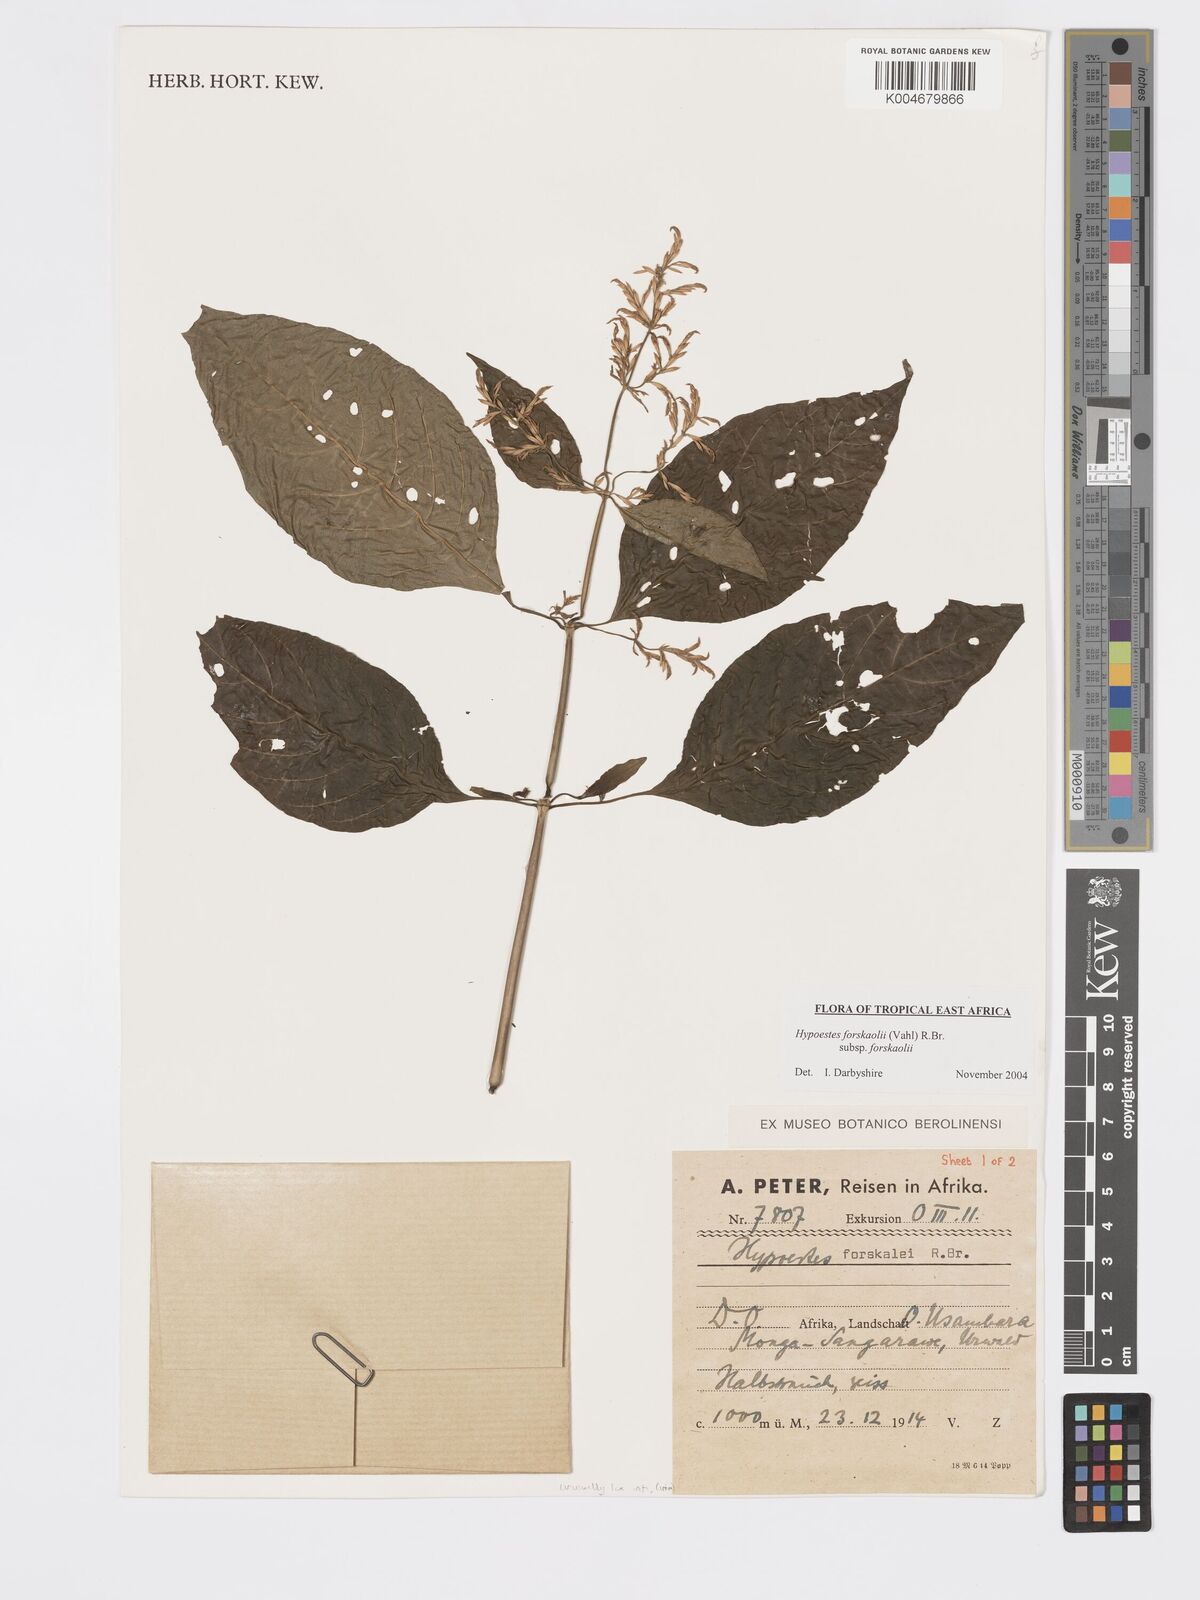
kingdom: Plantae
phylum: Tracheophyta
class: Magnoliopsida
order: Lamiales
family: Acanthaceae
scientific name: Acanthaceae
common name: Acanthaceae
